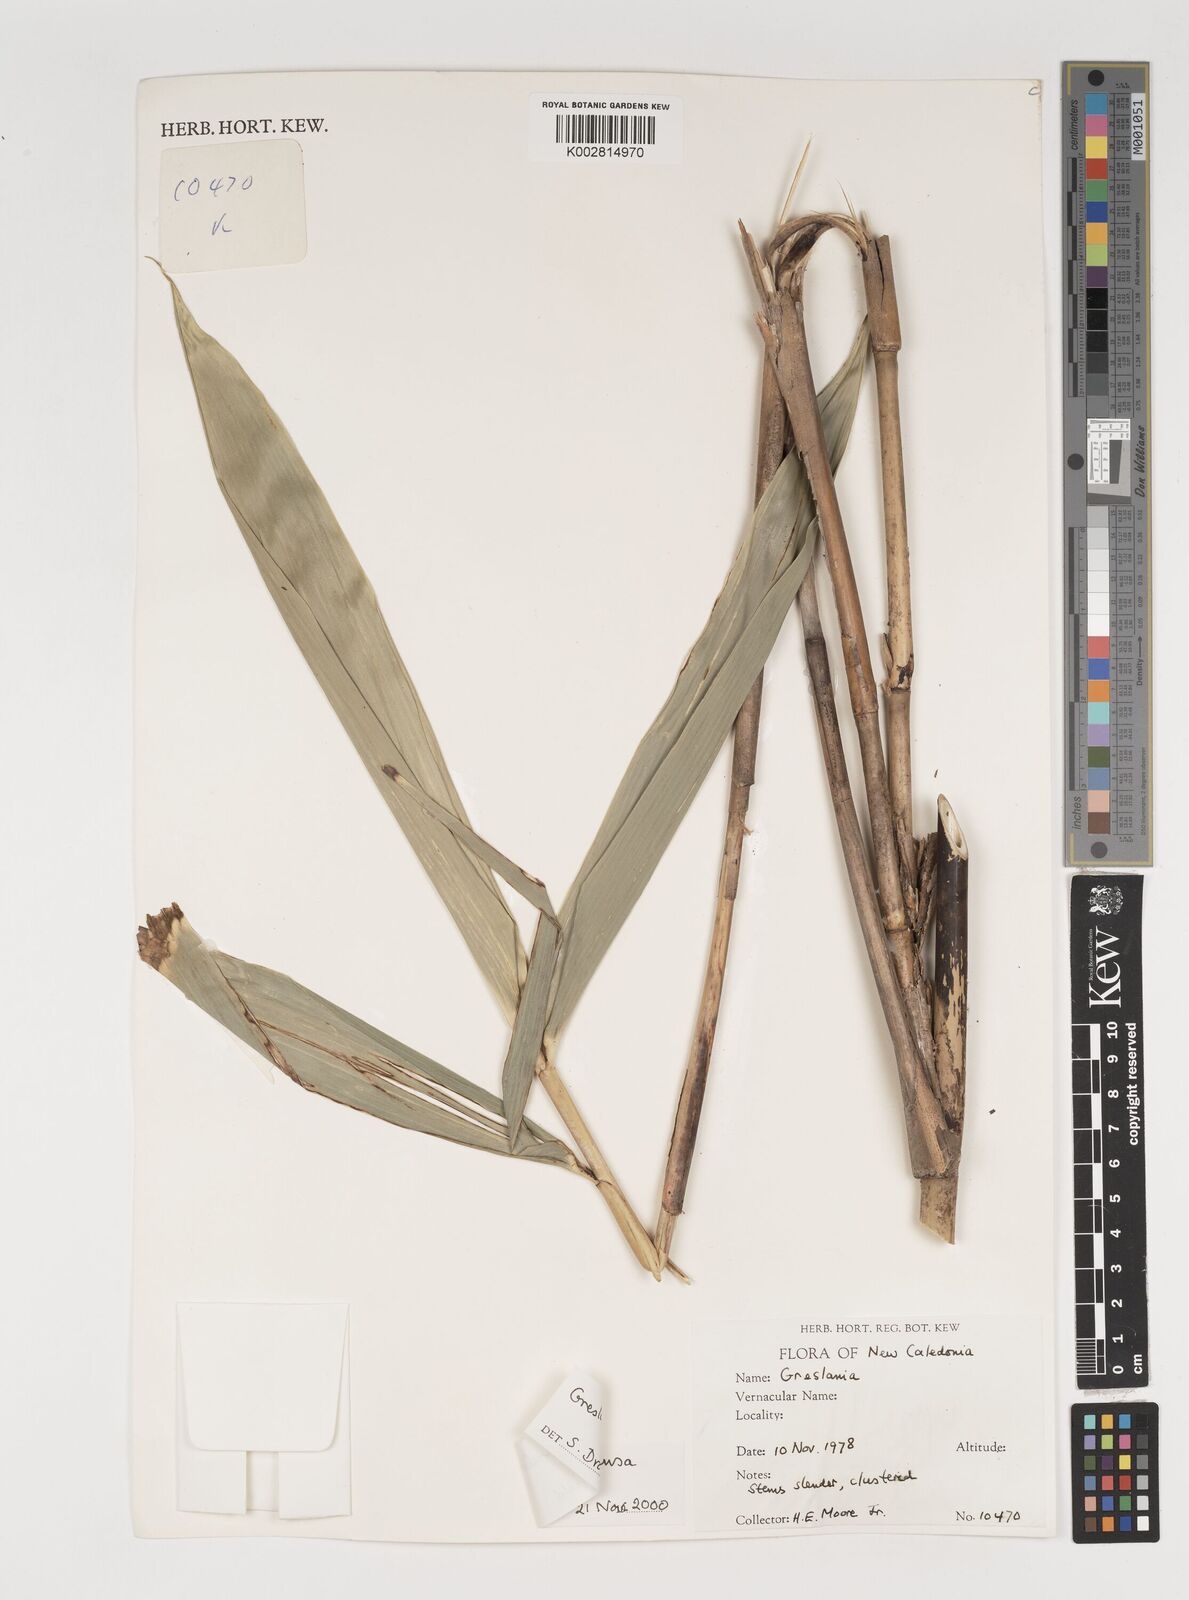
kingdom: Plantae
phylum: Tracheophyta
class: Liliopsida
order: Poales
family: Poaceae
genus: Greslania
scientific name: Greslania rivularis
